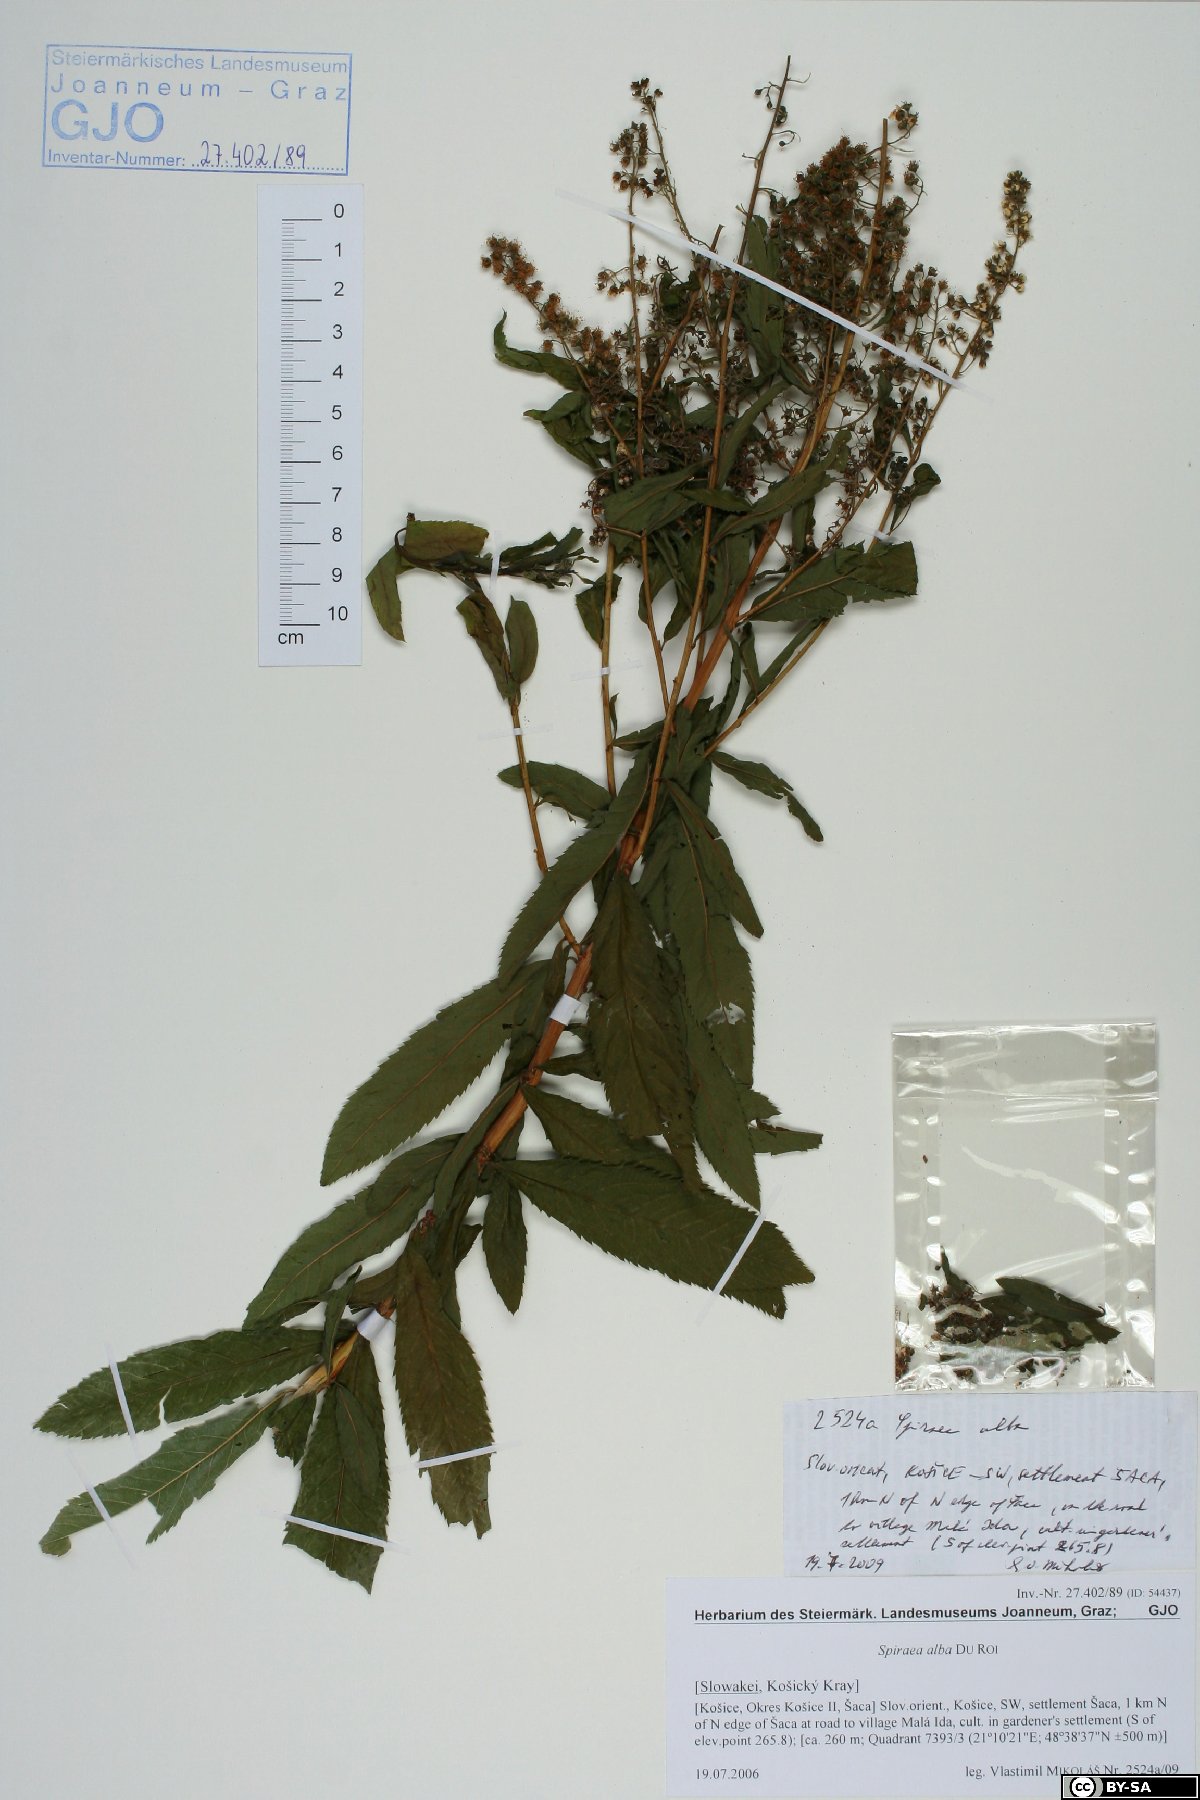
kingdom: Plantae
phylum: Tracheophyta
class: Magnoliopsida
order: Rosales
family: Rosaceae
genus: Spiraea
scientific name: Spiraea alba
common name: Pale bridewort
